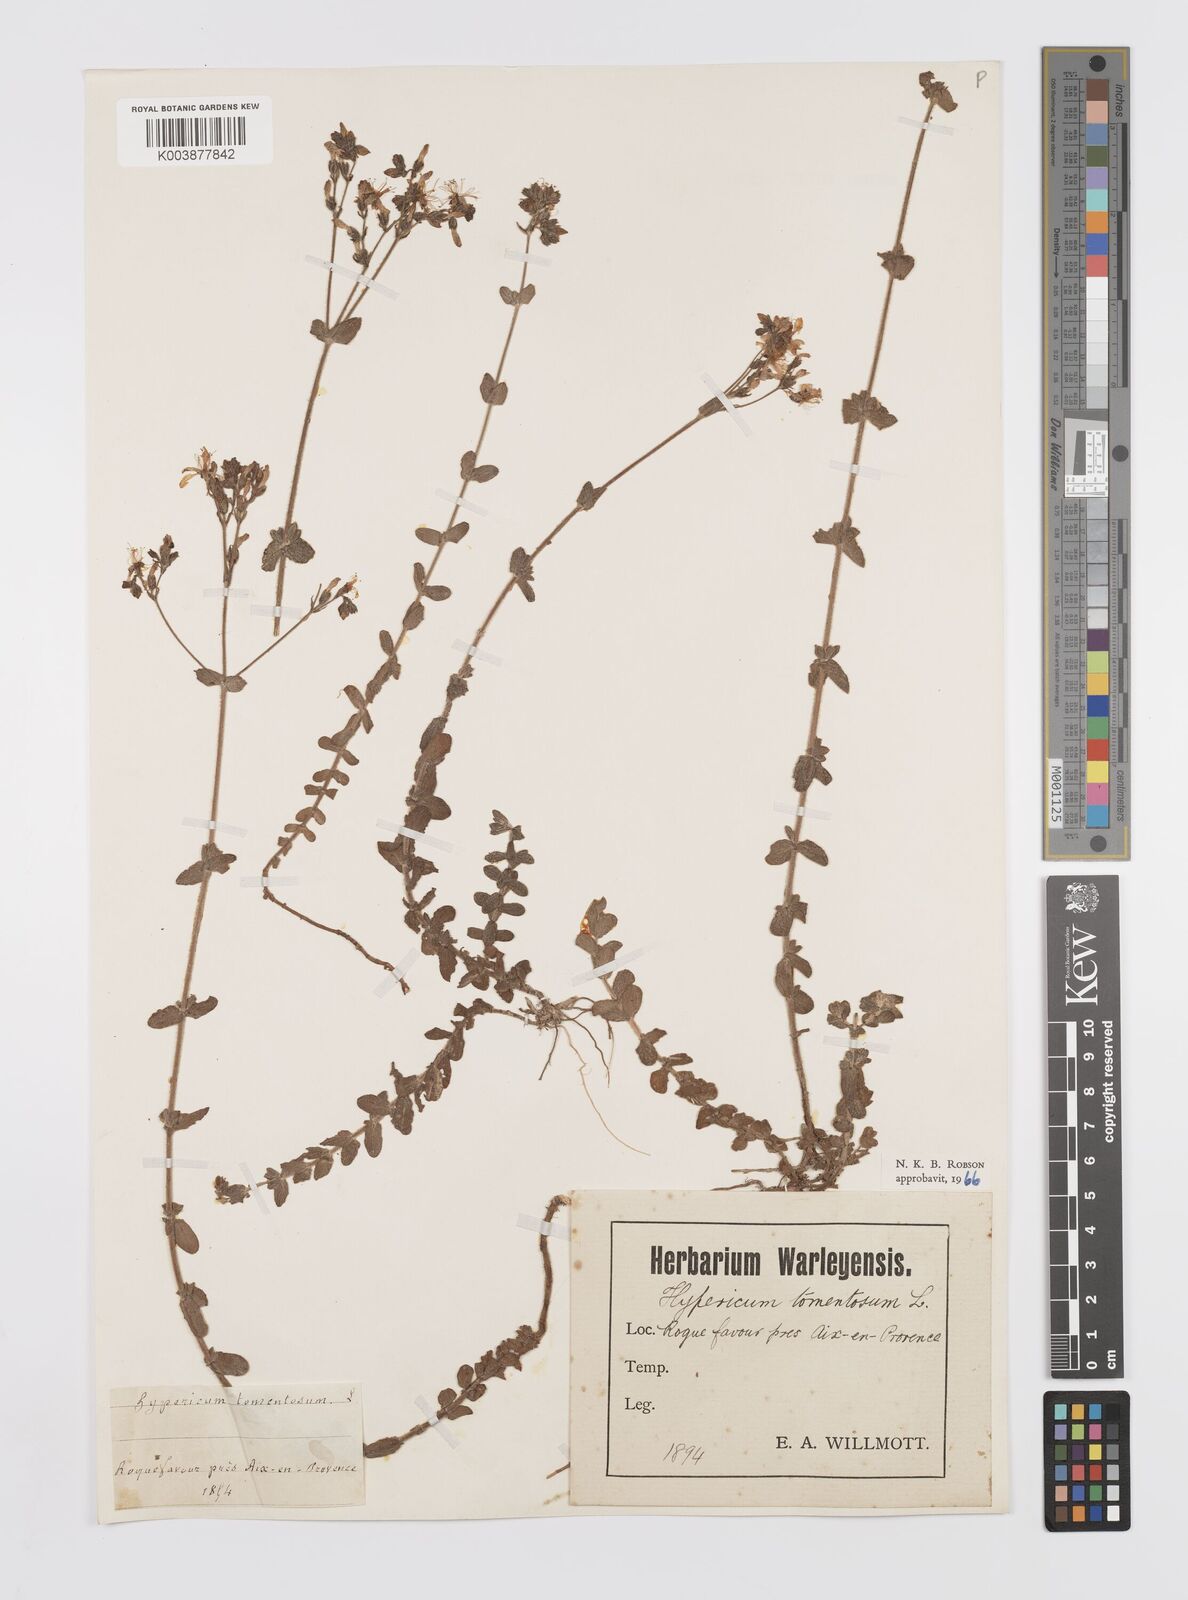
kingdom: Plantae
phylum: Tracheophyta
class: Magnoliopsida
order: Malpighiales
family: Hypericaceae
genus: Hypericum
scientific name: Hypericum tomentosum
